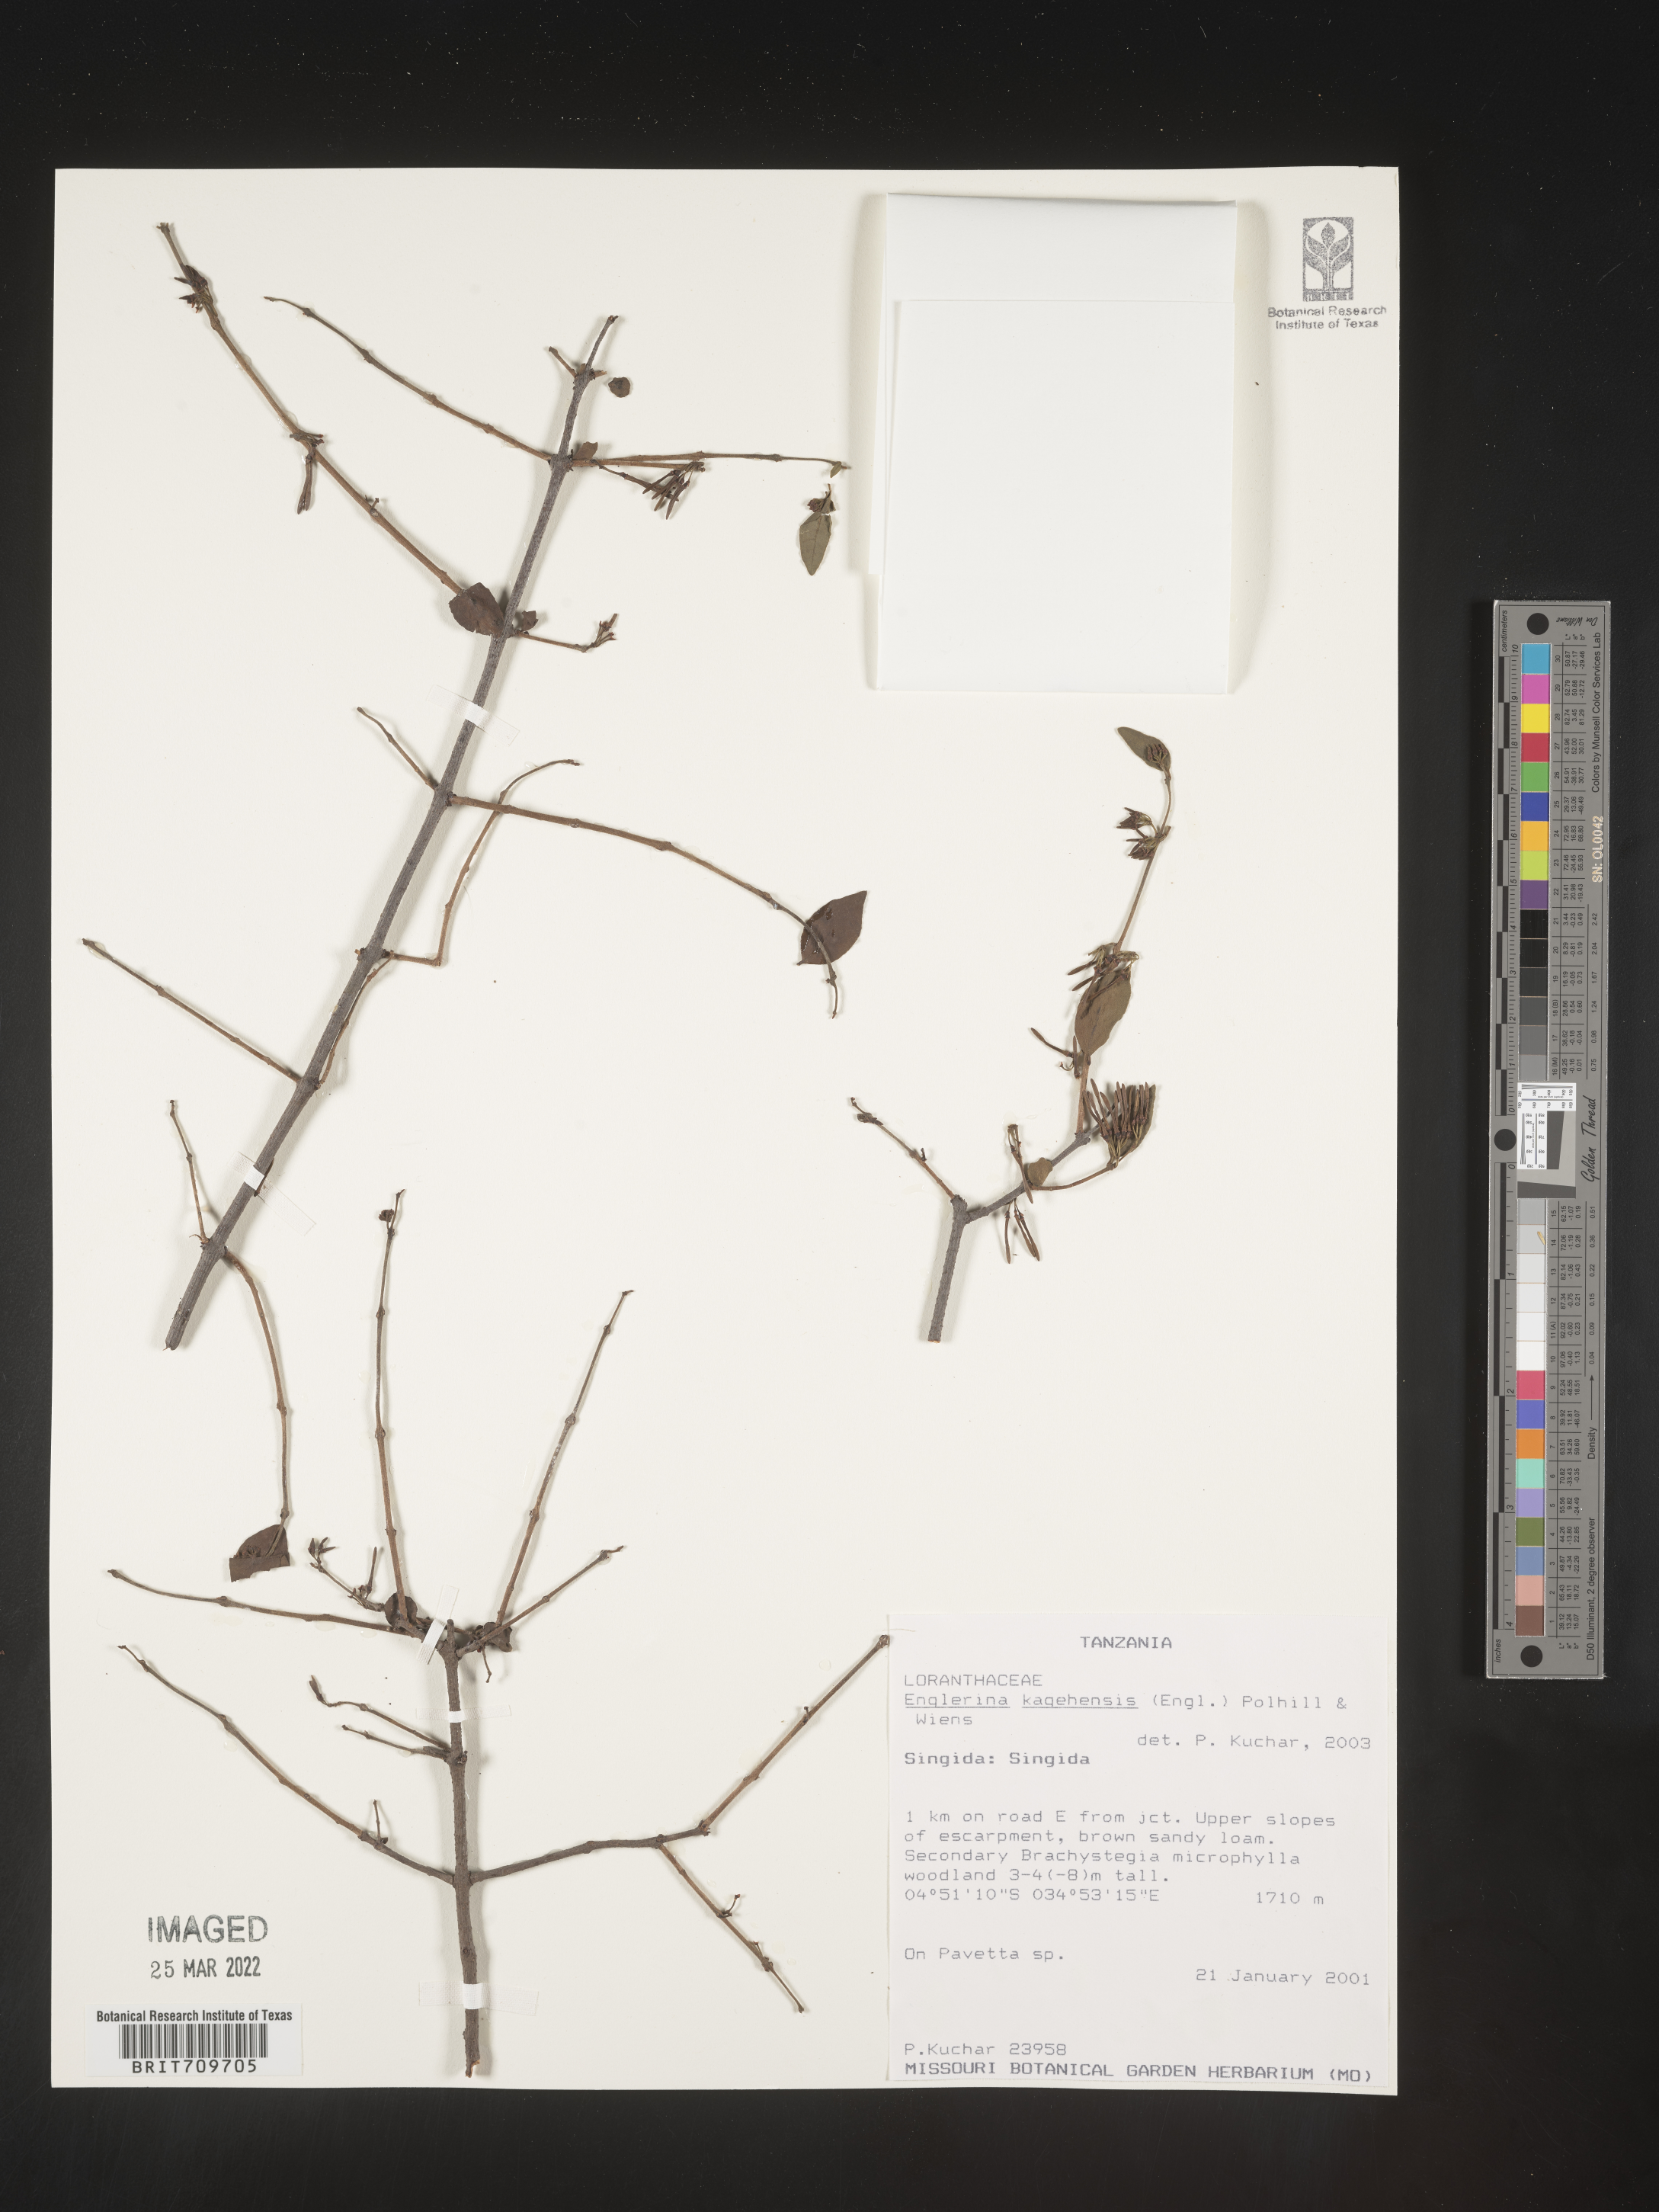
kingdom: Plantae
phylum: Tracheophyta
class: Magnoliopsida
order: Santalales
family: Loranthaceae
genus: Englerina
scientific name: Englerina
